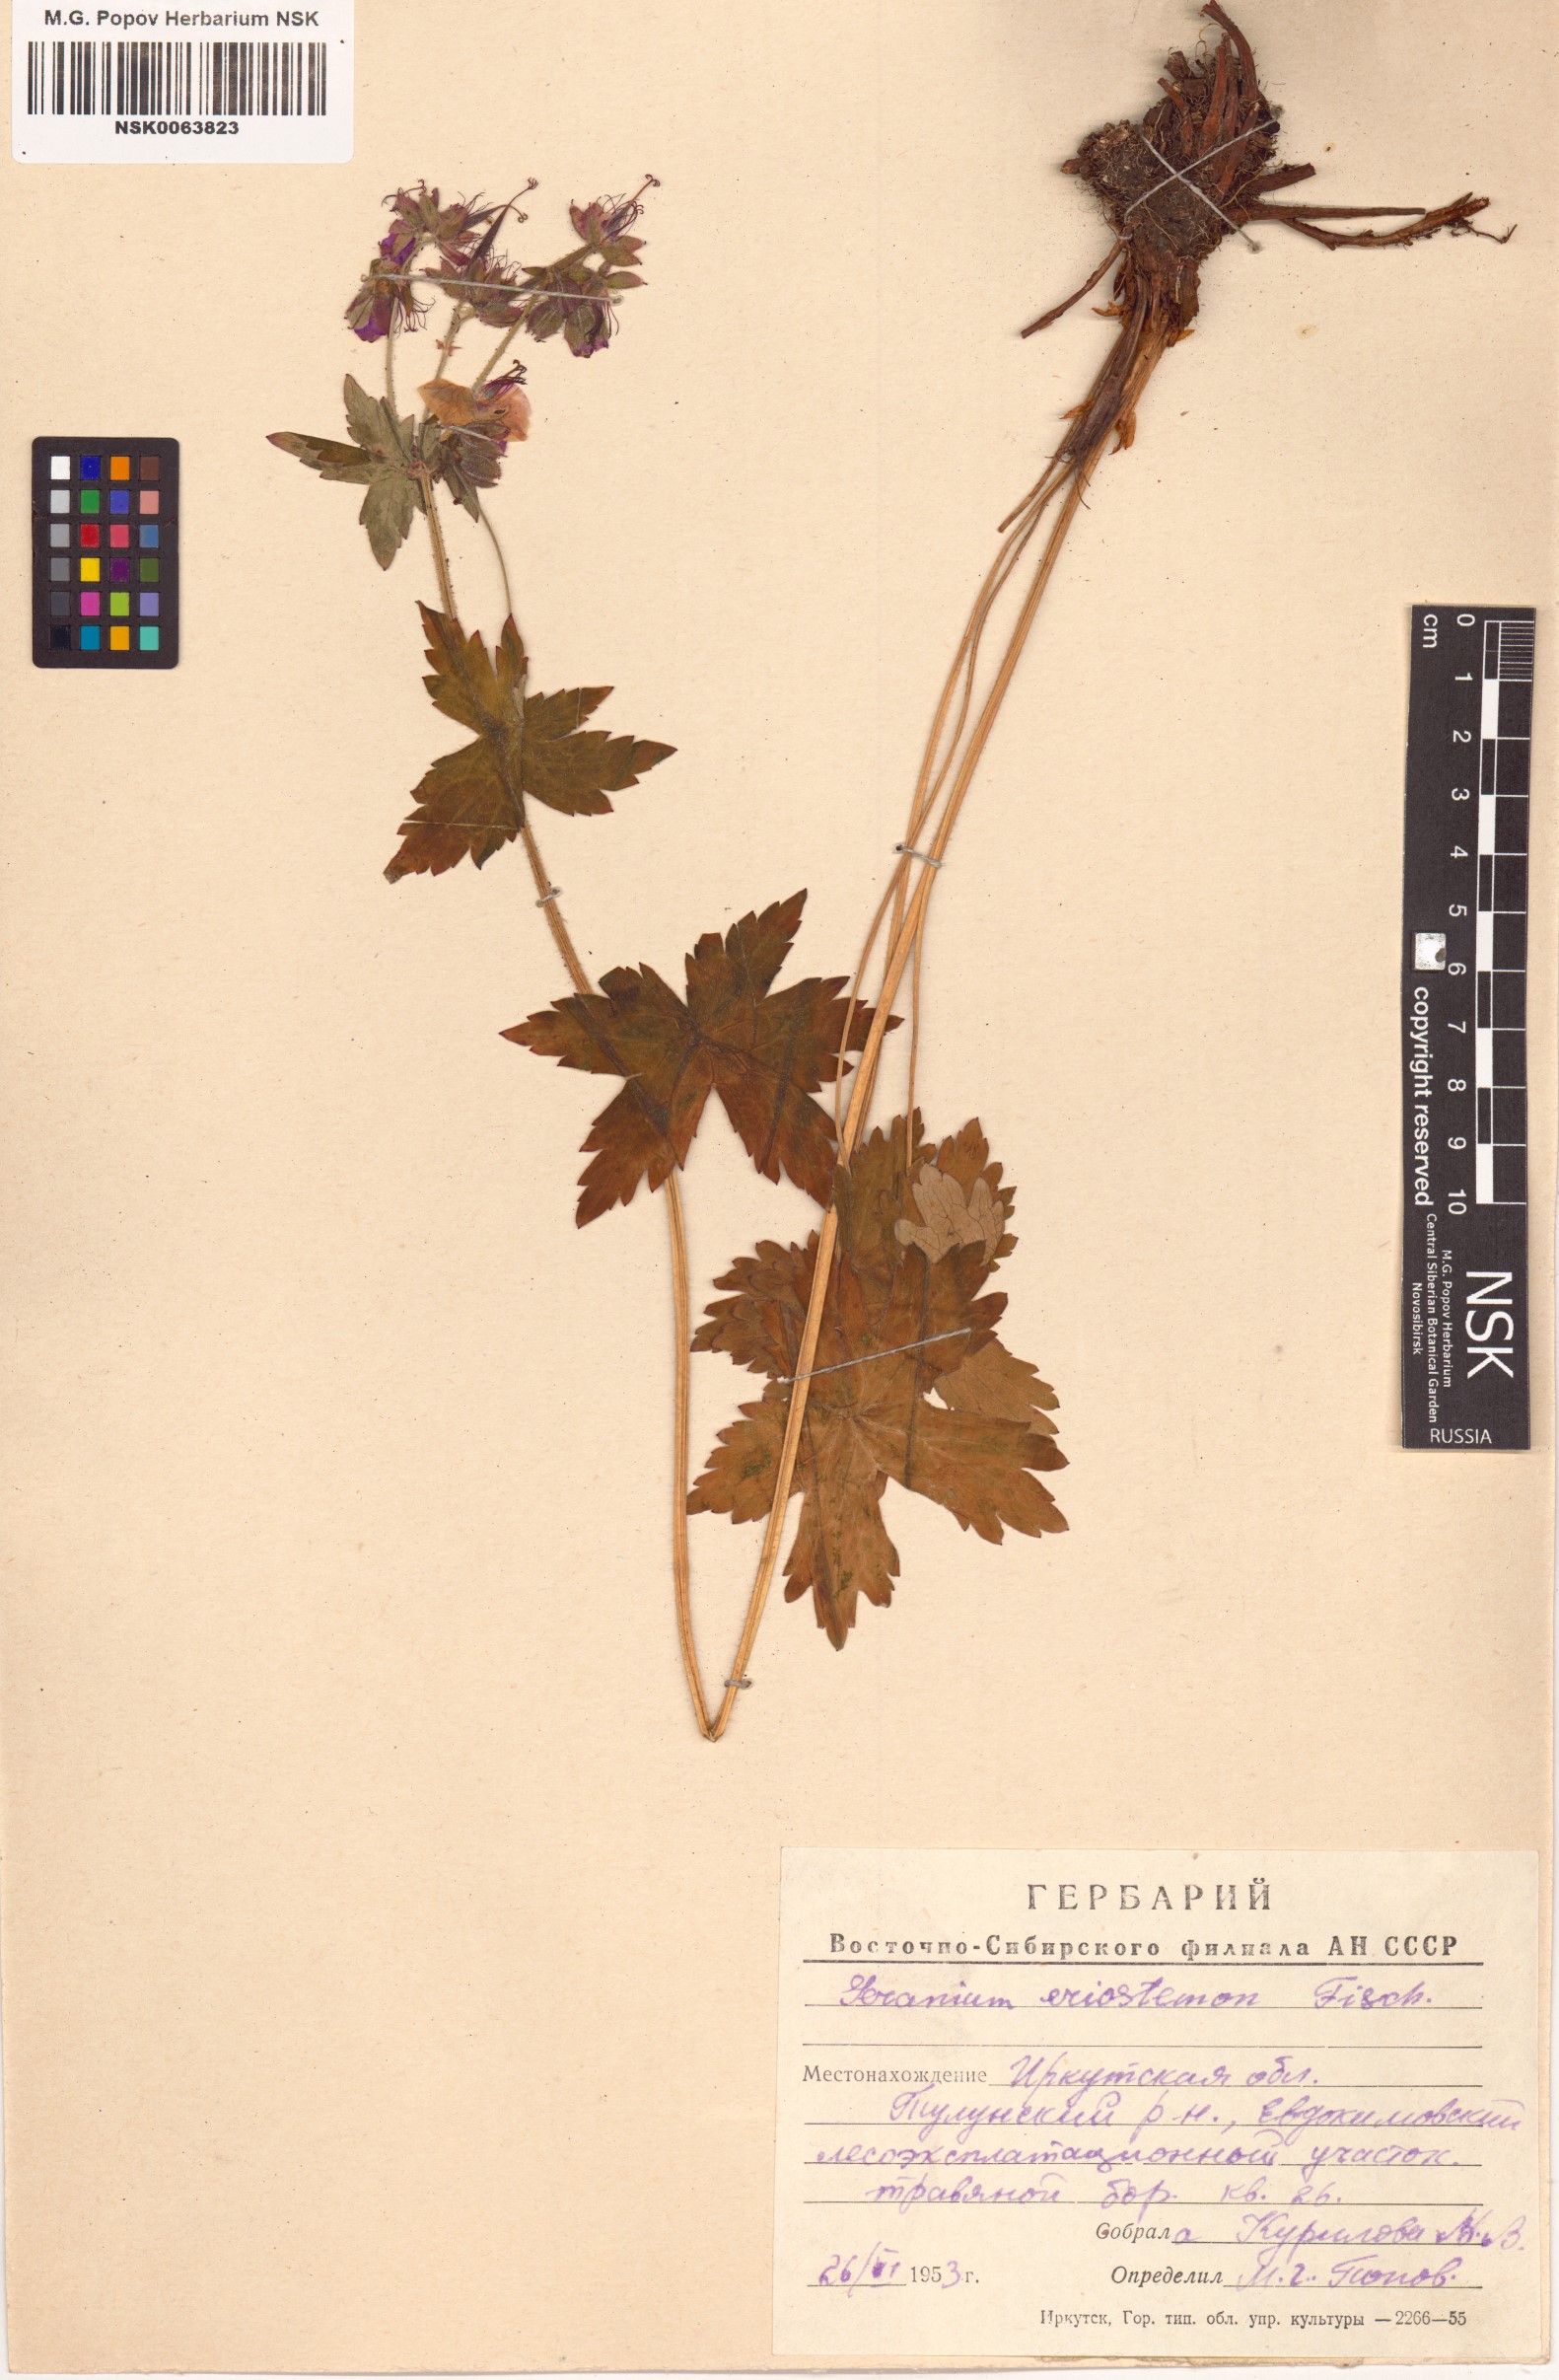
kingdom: Plantae
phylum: Tracheophyta
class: Magnoliopsida
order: Geraniales
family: Geraniaceae
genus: Geranium
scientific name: Geranium platyanthum
